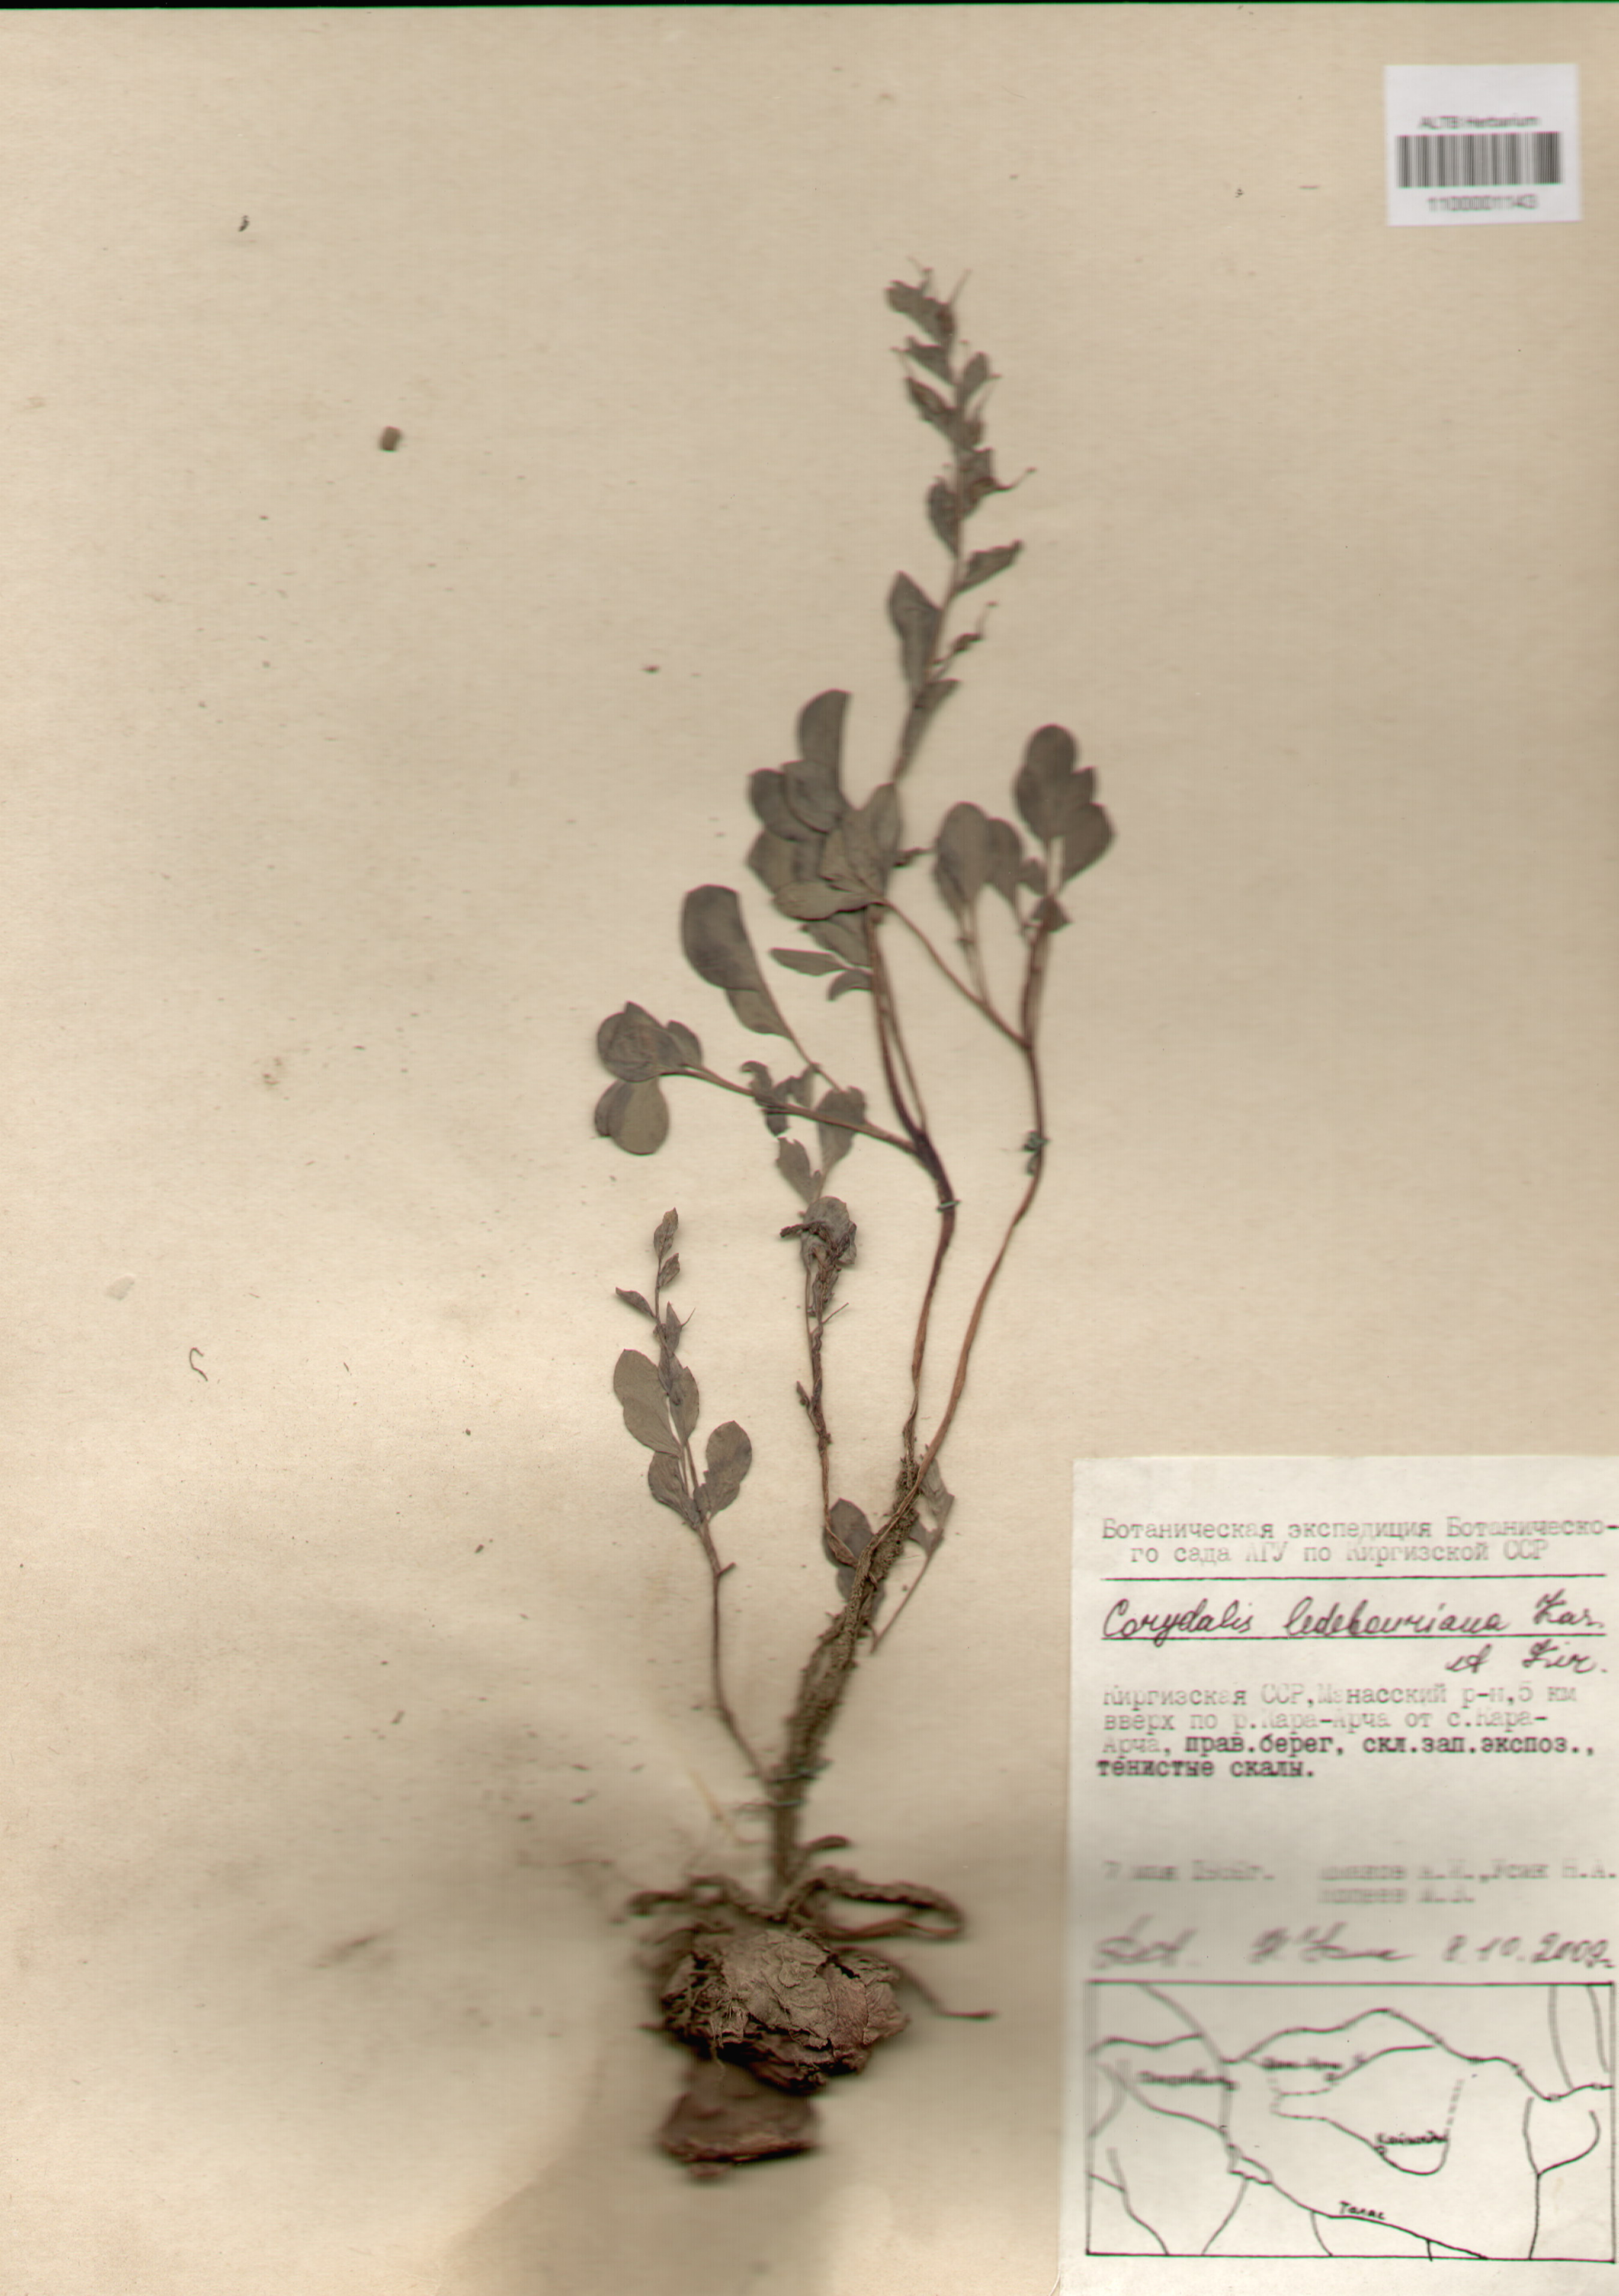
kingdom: Plantae
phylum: Tracheophyta
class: Magnoliopsida
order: Ranunculales
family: Papaveraceae
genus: Corydalis
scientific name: Corydalis ledebouriana
